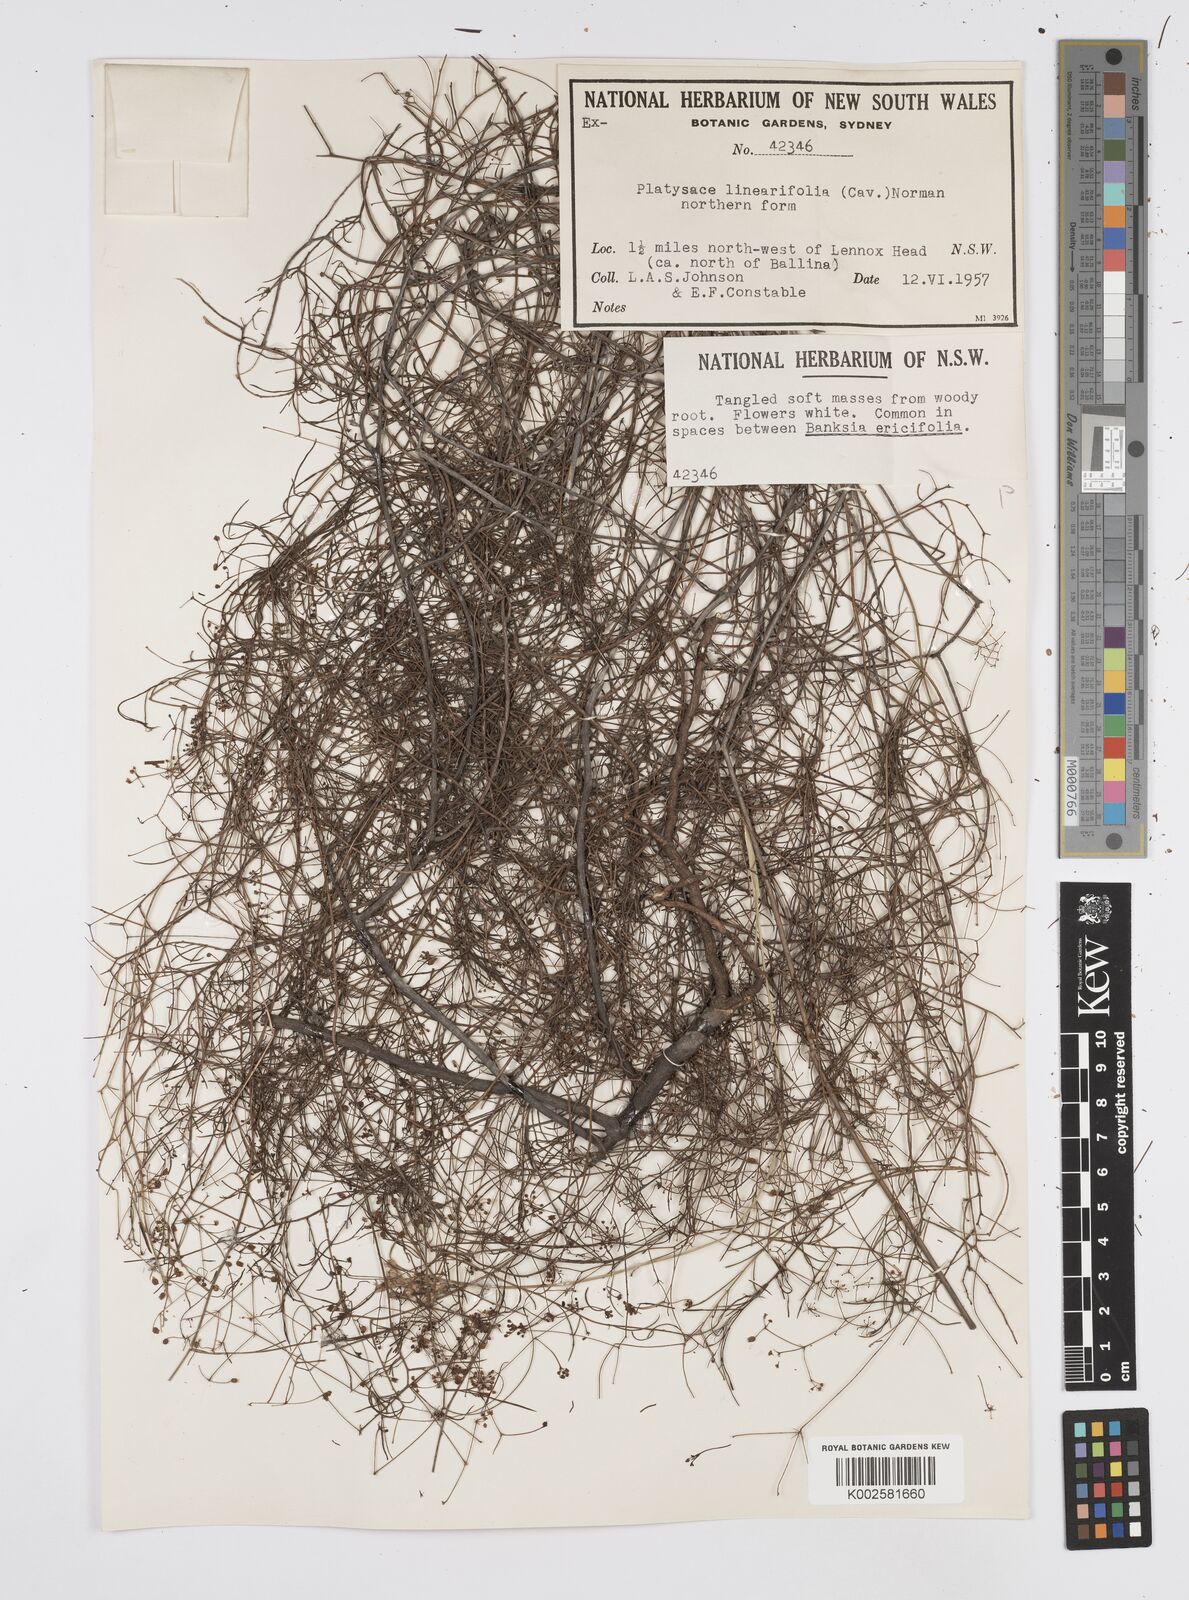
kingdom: Plantae
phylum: Tracheophyta
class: Magnoliopsida
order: Apiales
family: Apiaceae
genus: Platysace
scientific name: Platysace linearifolia
